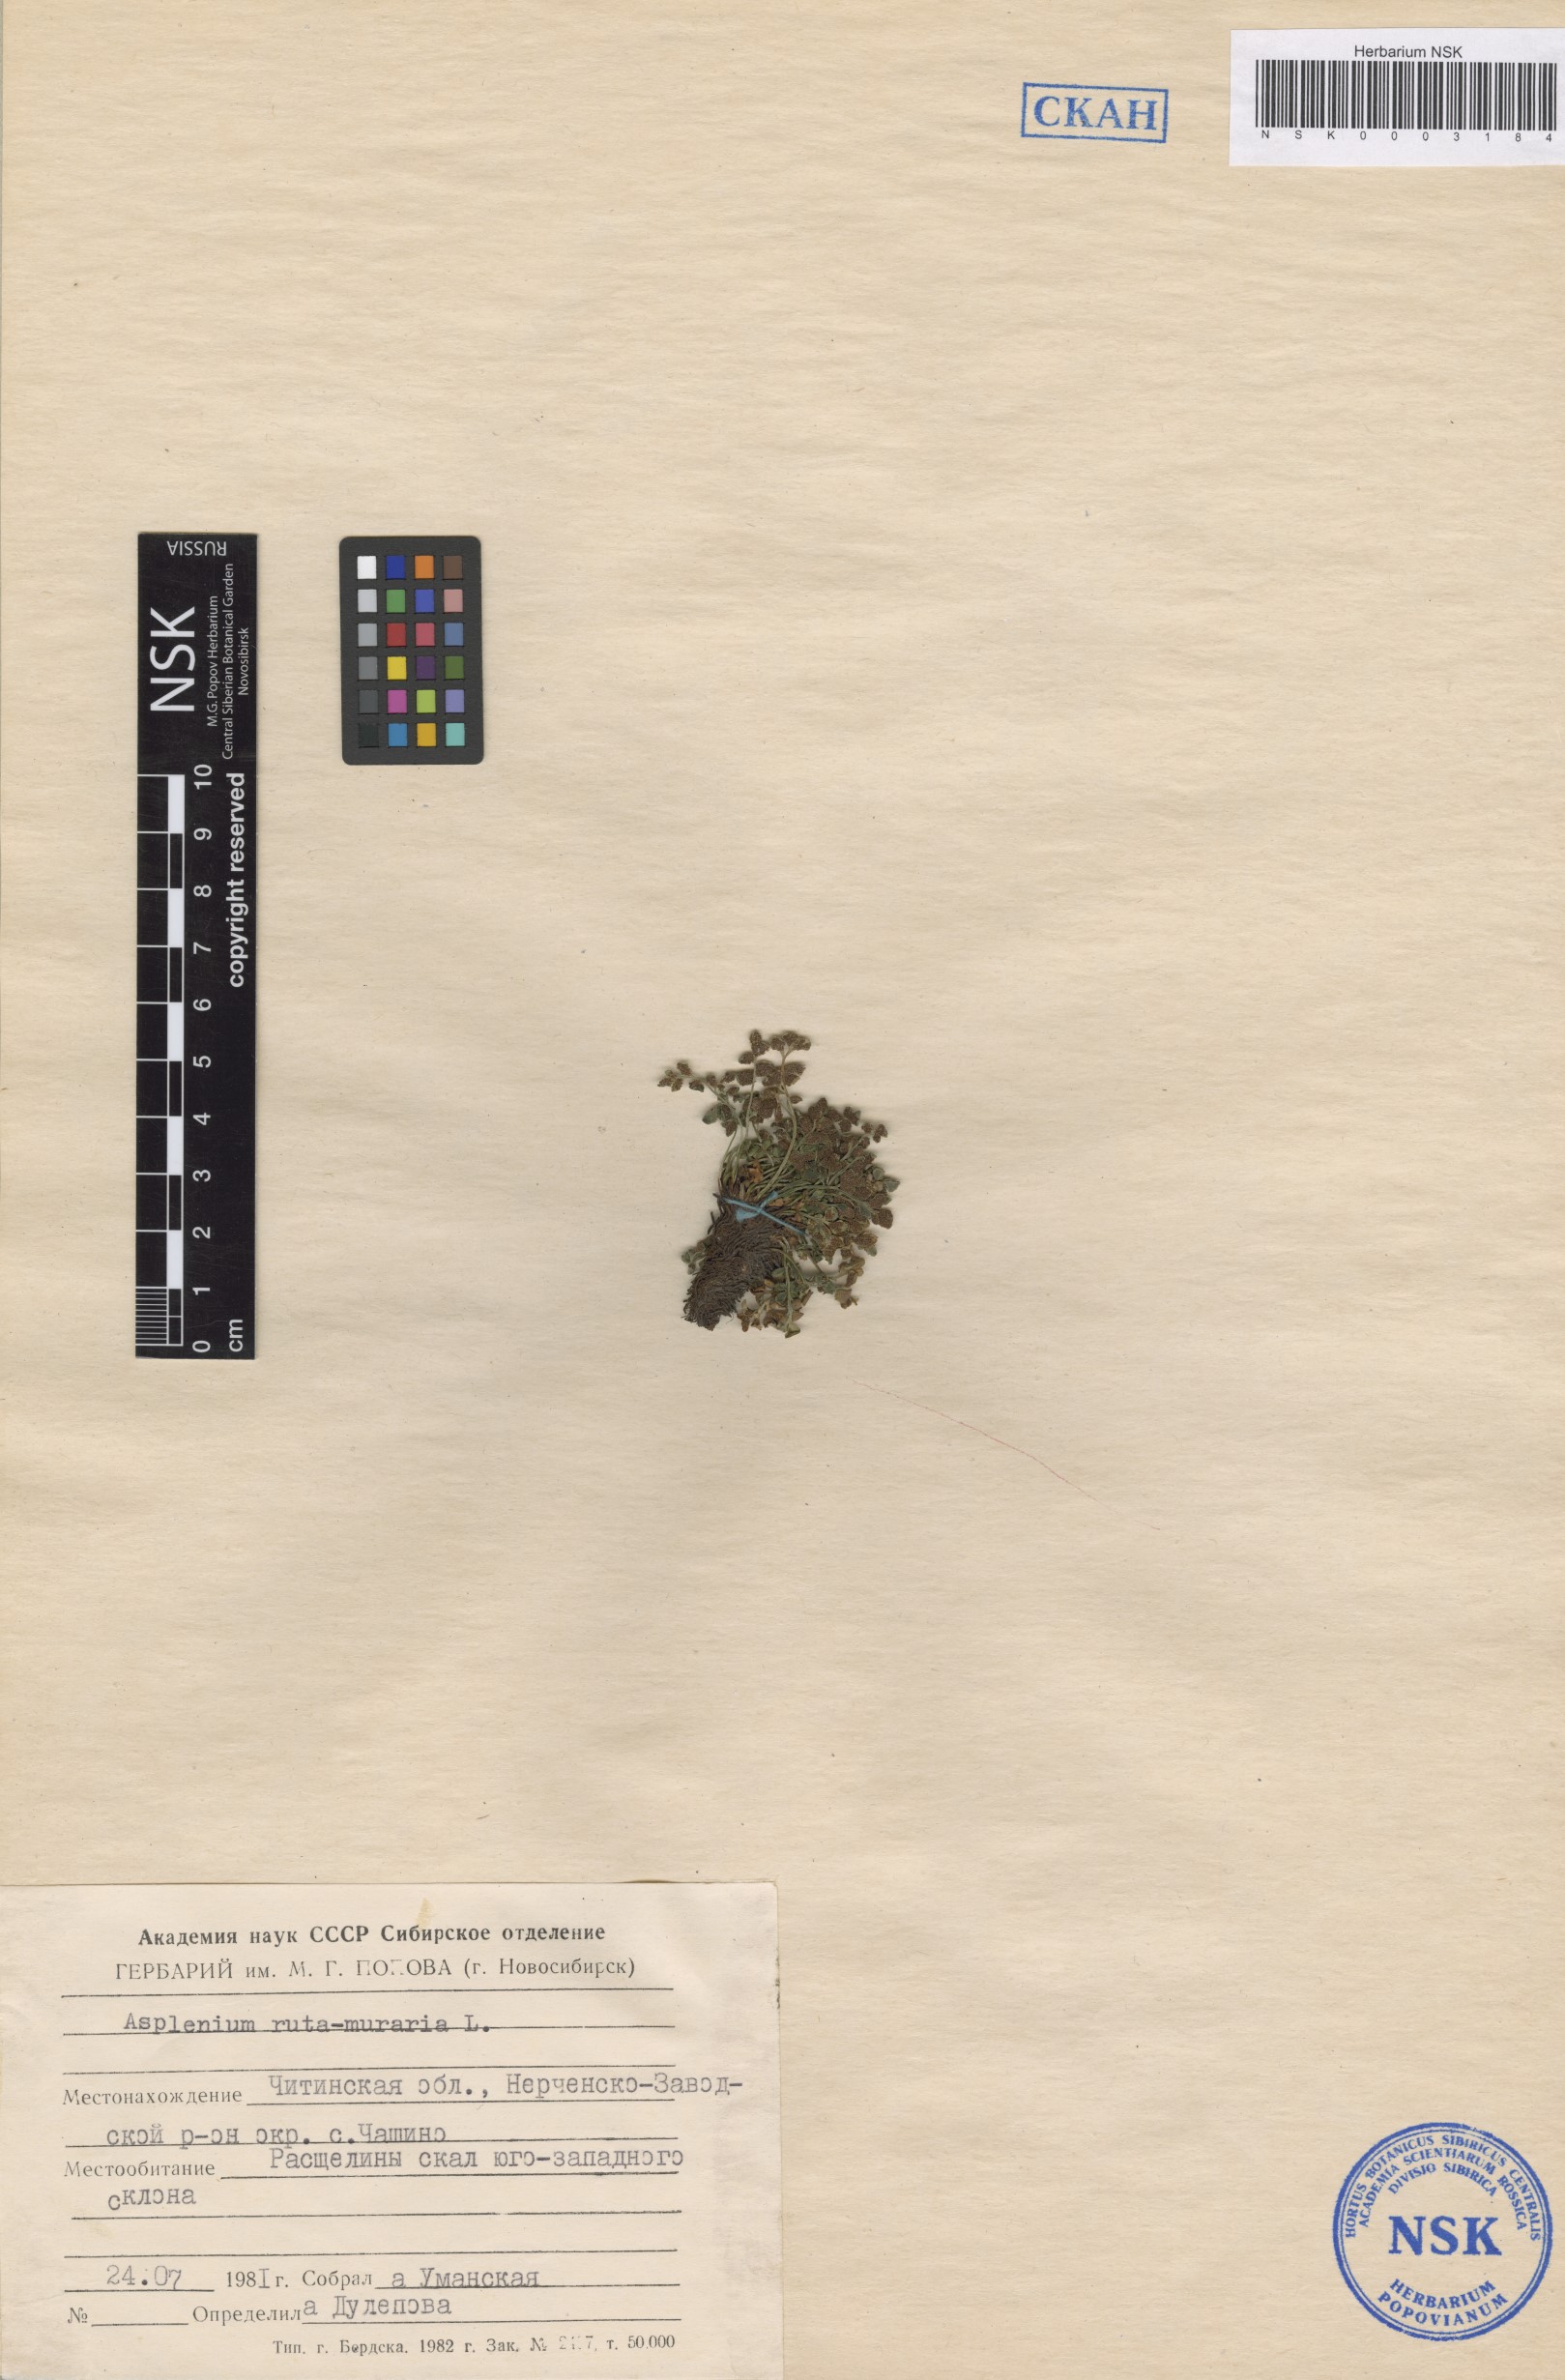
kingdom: Plantae
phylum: Tracheophyta
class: Polypodiopsida
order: Polypodiales
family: Aspleniaceae
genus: Asplenium
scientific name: Asplenium ruta-muraria
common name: Wall-rue
